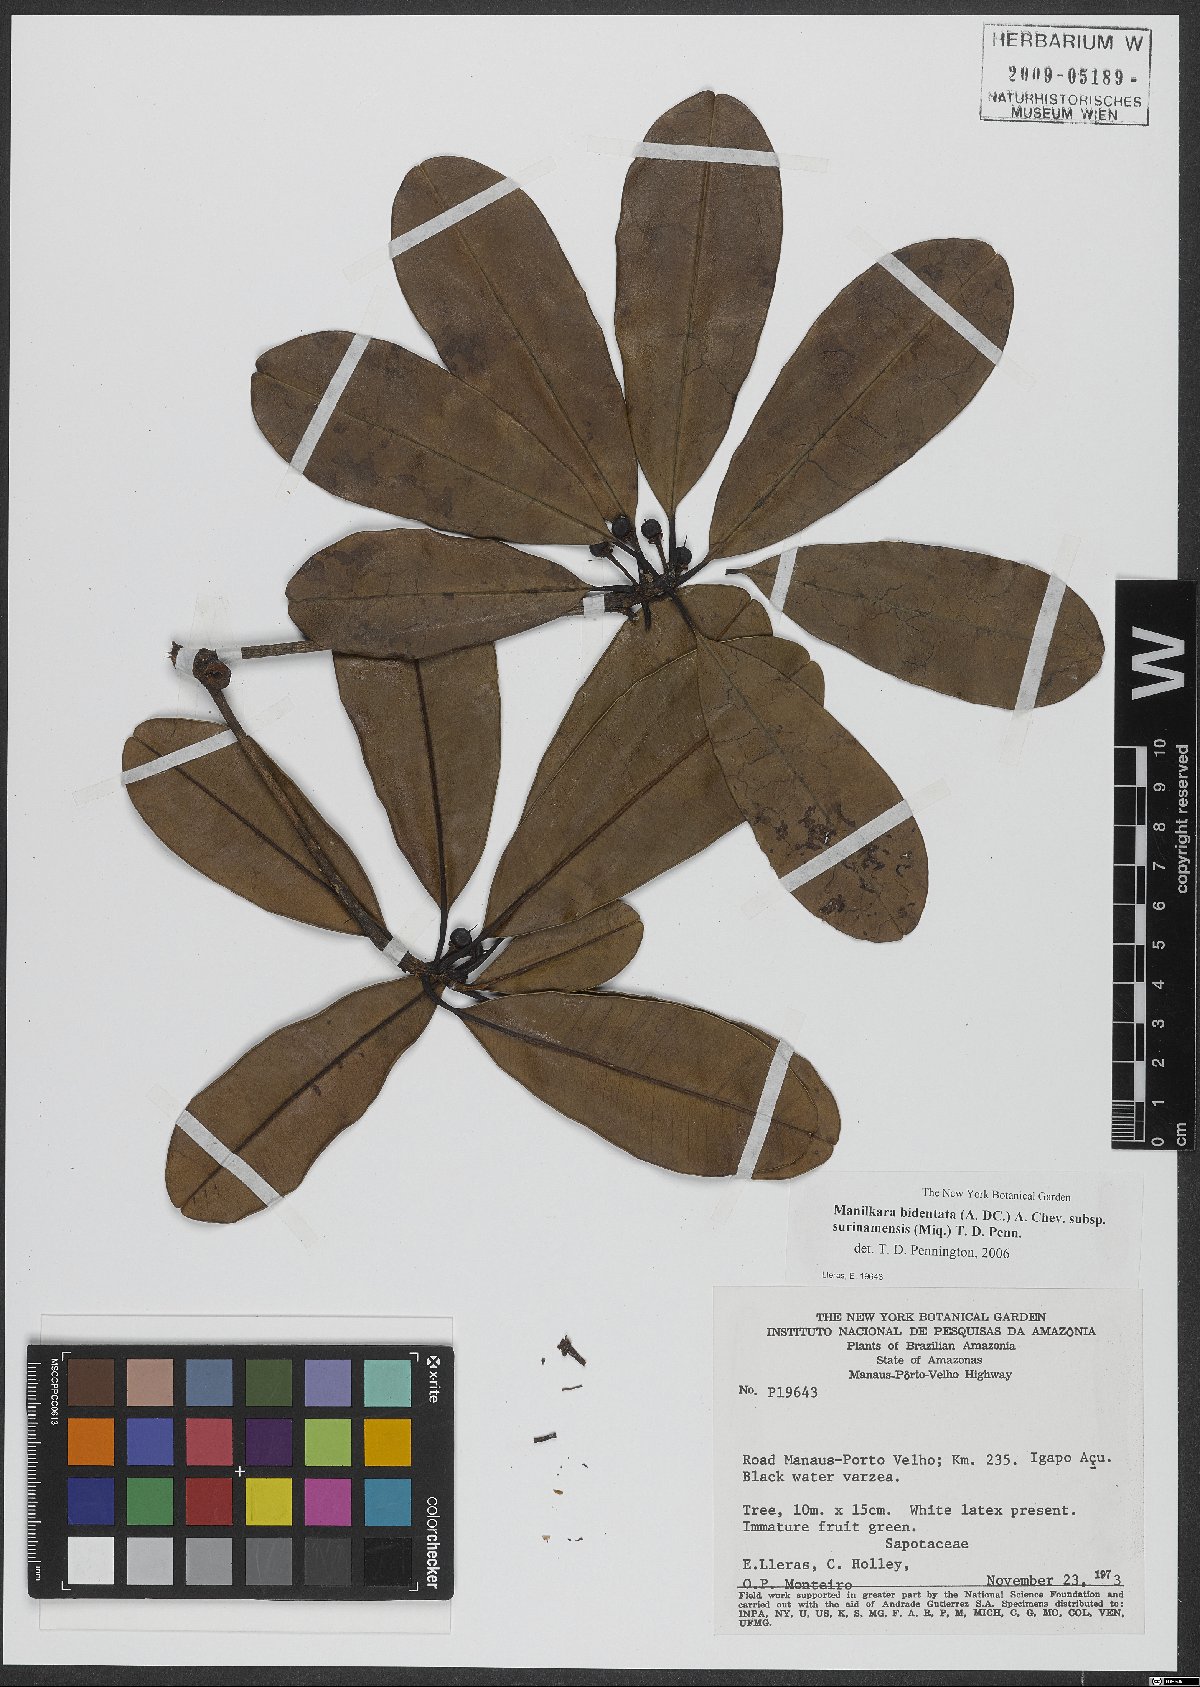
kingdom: Plantae
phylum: Tracheophyta
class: Magnoliopsida
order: Ericales
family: Sapotaceae
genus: Manilkara
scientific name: Manilkara bidentata
